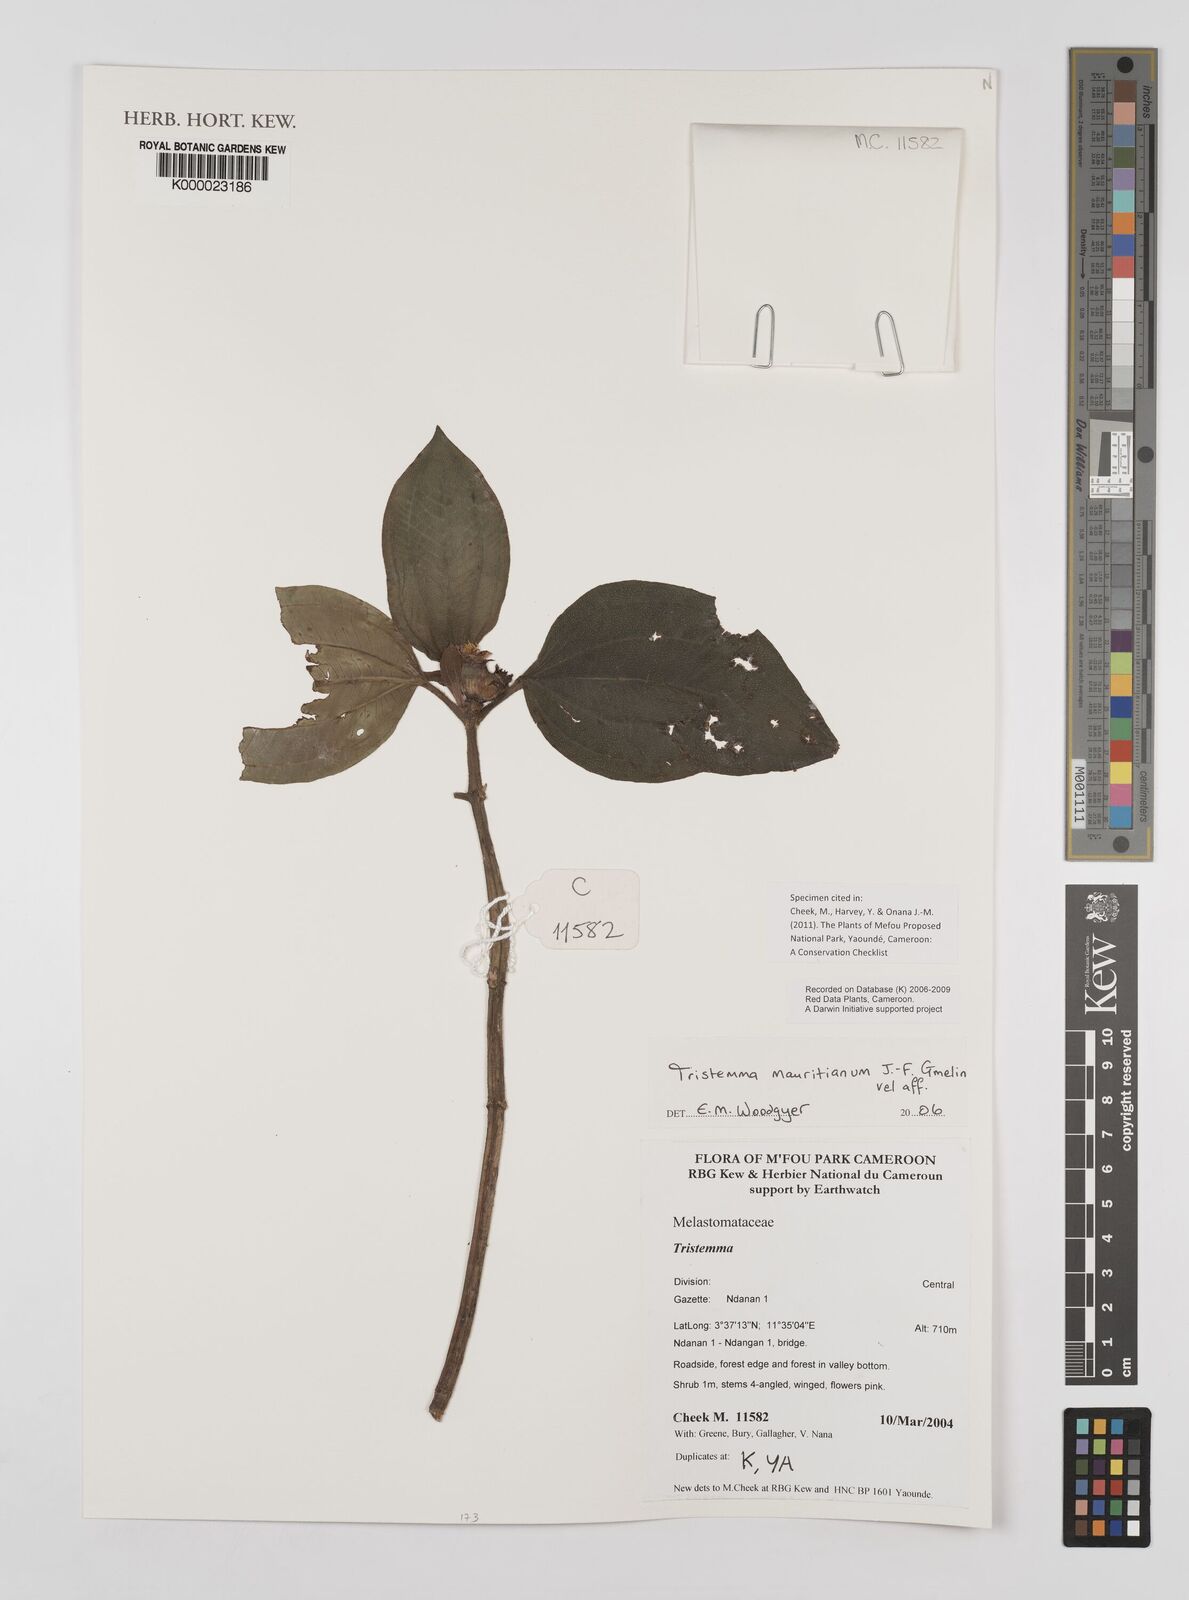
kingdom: Plantae
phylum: Tracheophyta
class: Magnoliopsida
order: Myrtales
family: Melastomataceae
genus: Tristemma
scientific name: Tristemma
